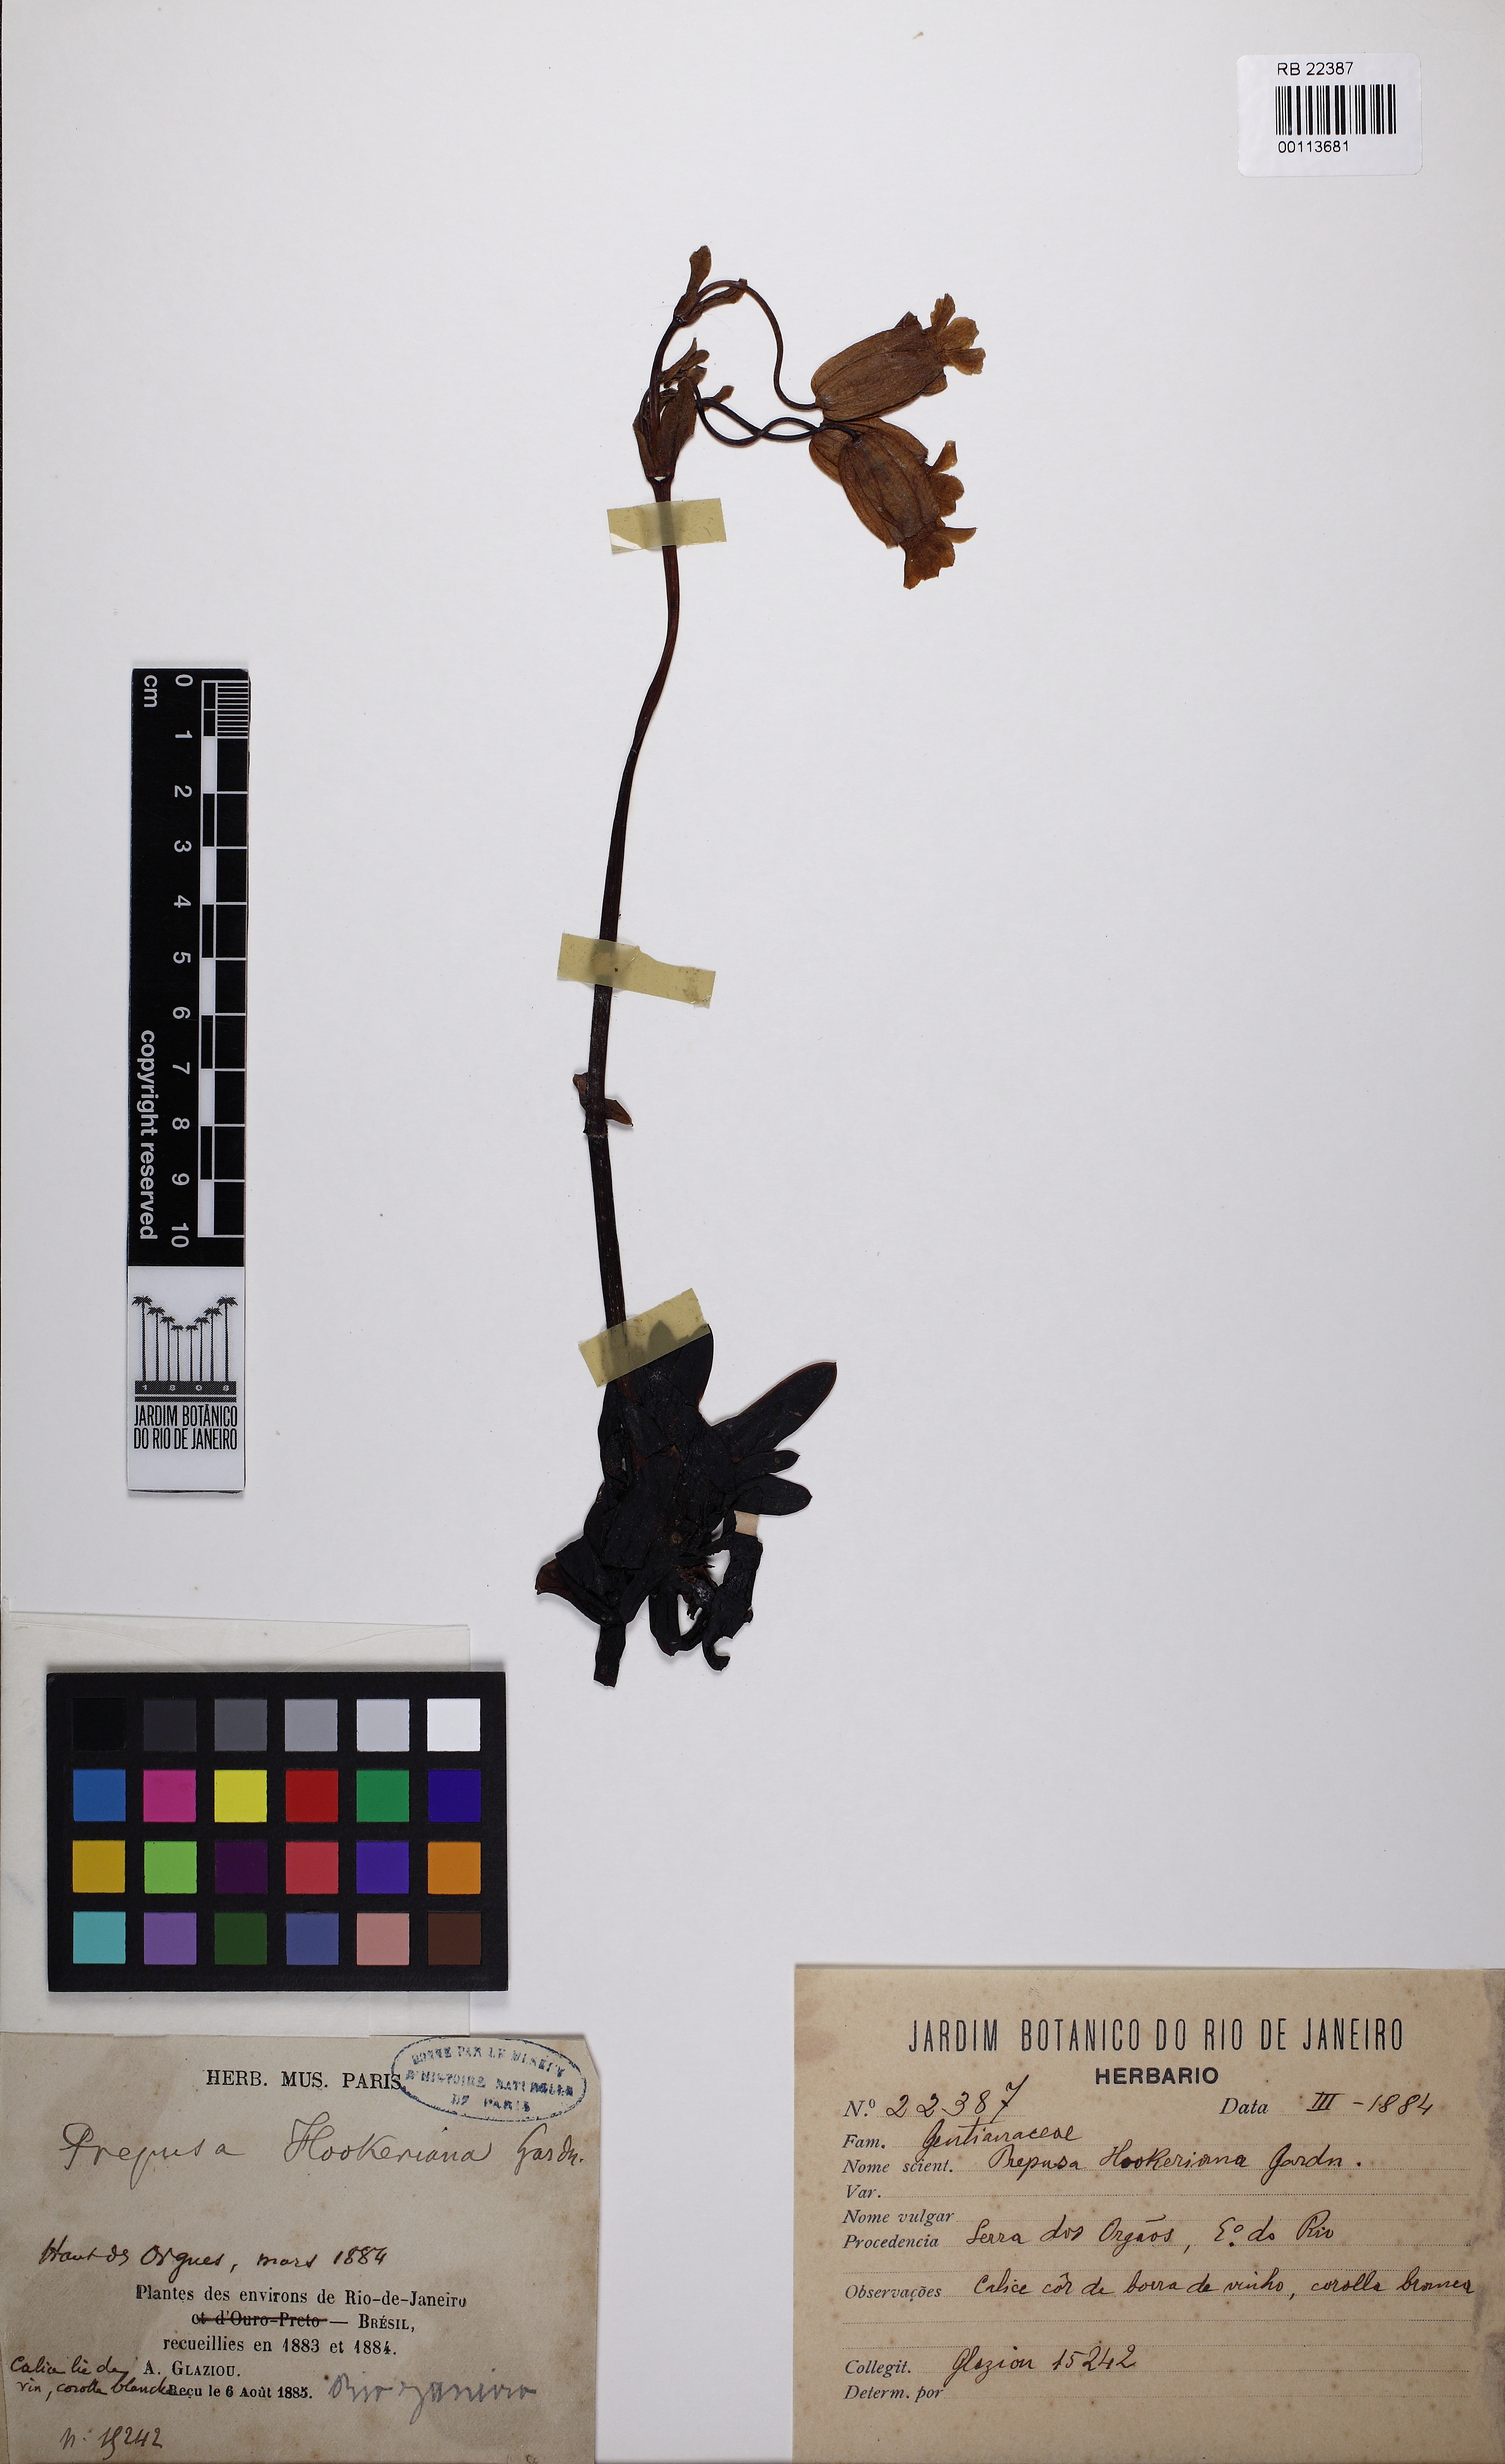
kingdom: Plantae
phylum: Tracheophyta
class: Magnoliopsida
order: Gentianales
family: Gentianaceae
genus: Prepusa
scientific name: Prepusa hookeriana
